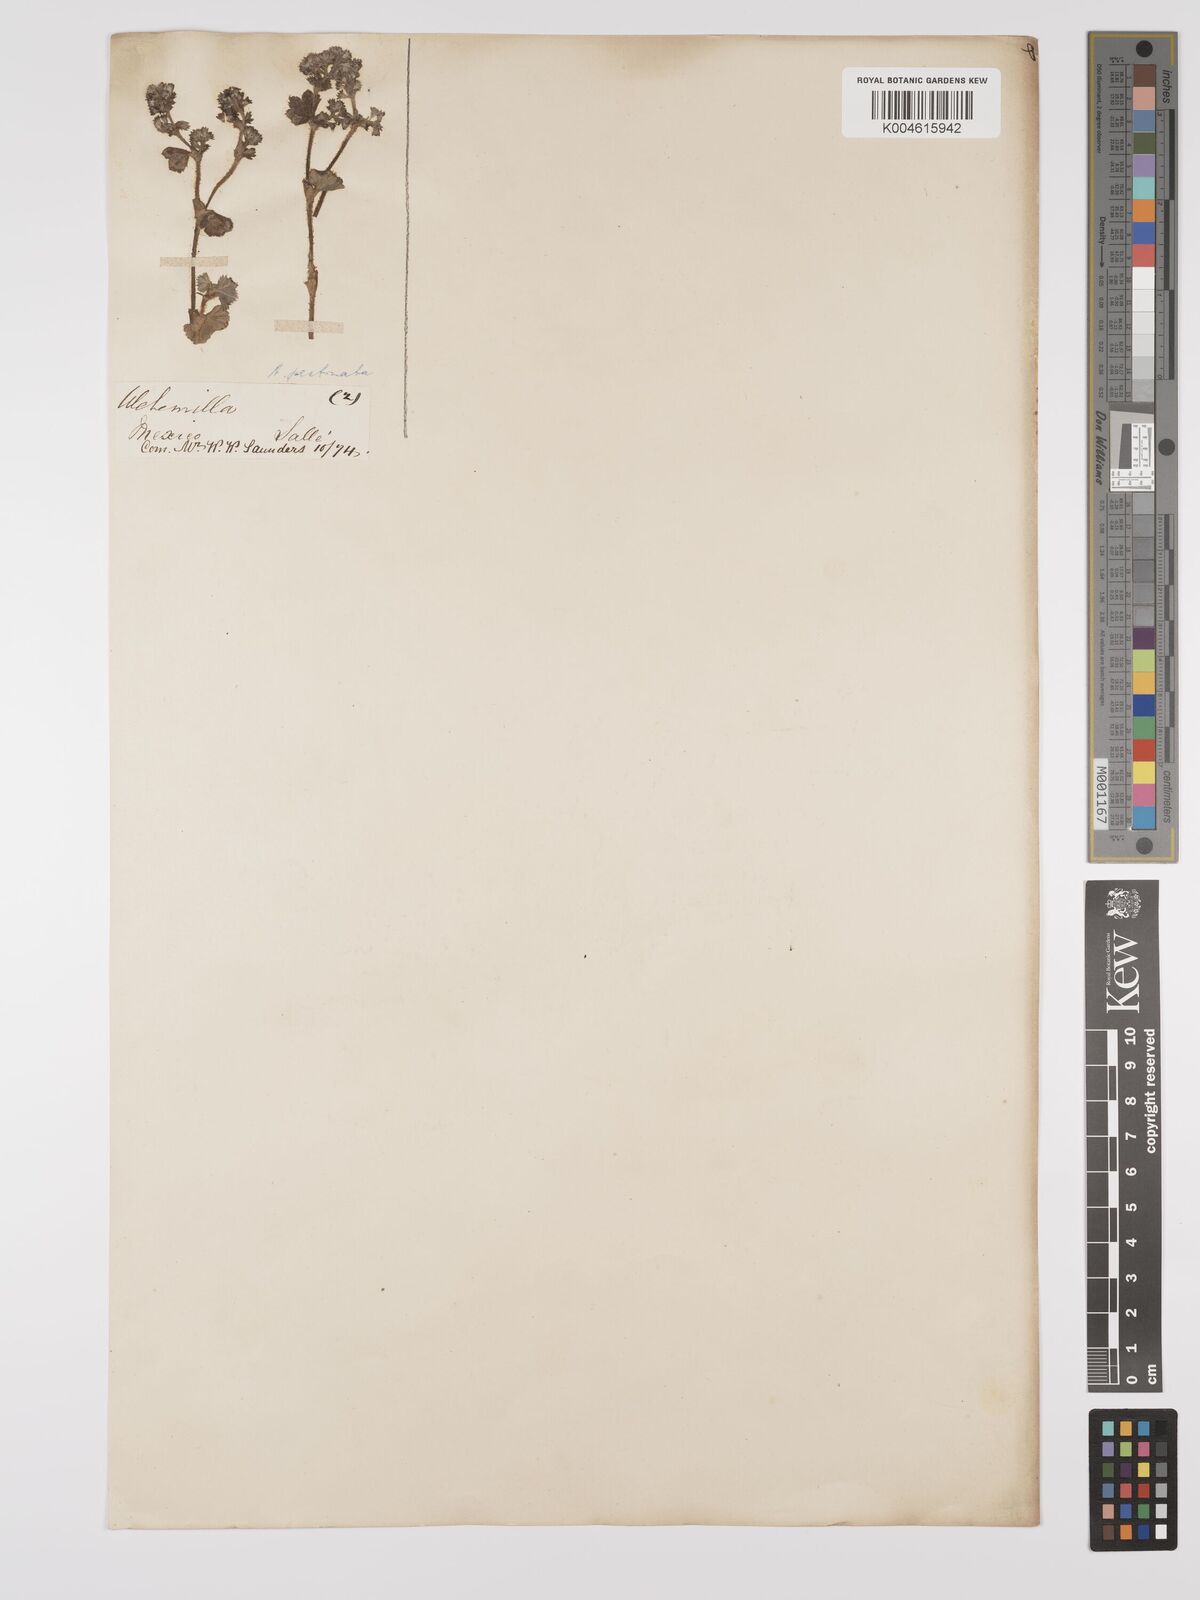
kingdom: Plantae
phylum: Tracheophyta
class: Magnoliopsida
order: Rosales
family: Rosaceae
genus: Lachemilla
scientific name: Lachemilla pectinata
